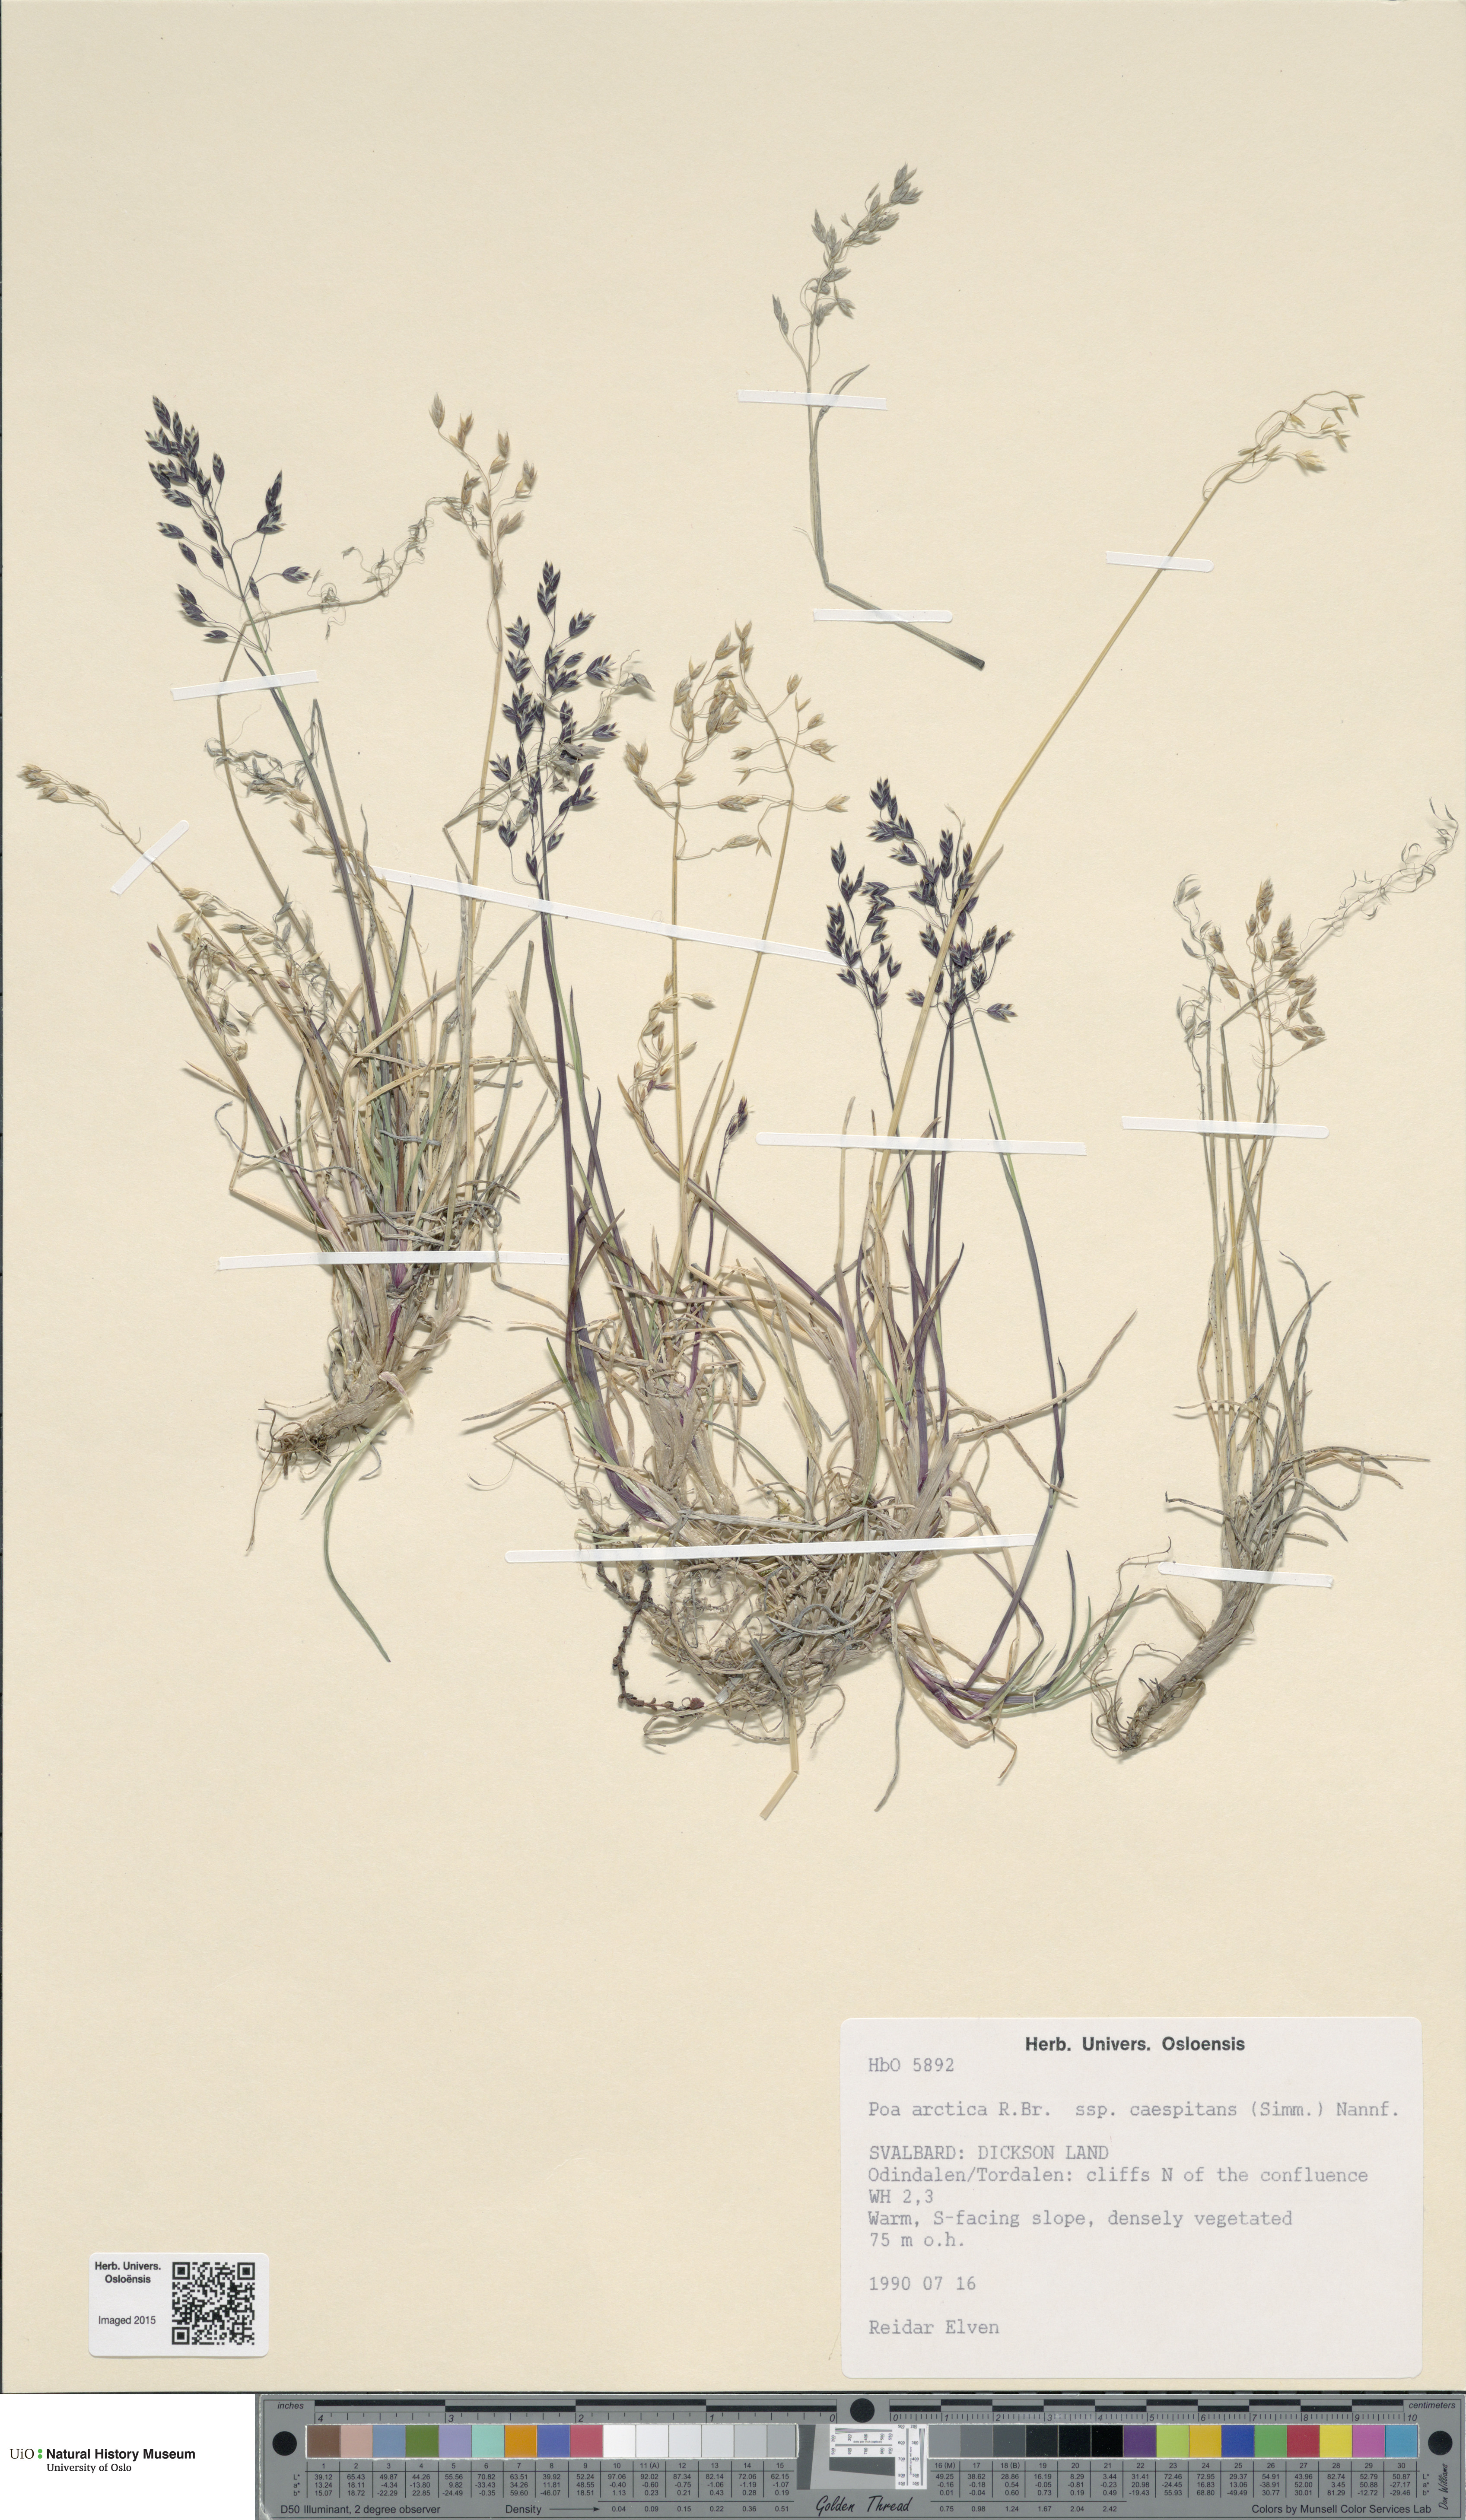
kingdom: Plantae
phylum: Tracheophyta
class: Liliopsida
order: Poales
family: Poaceae
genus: Poa
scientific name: Poa tolmatchewii
